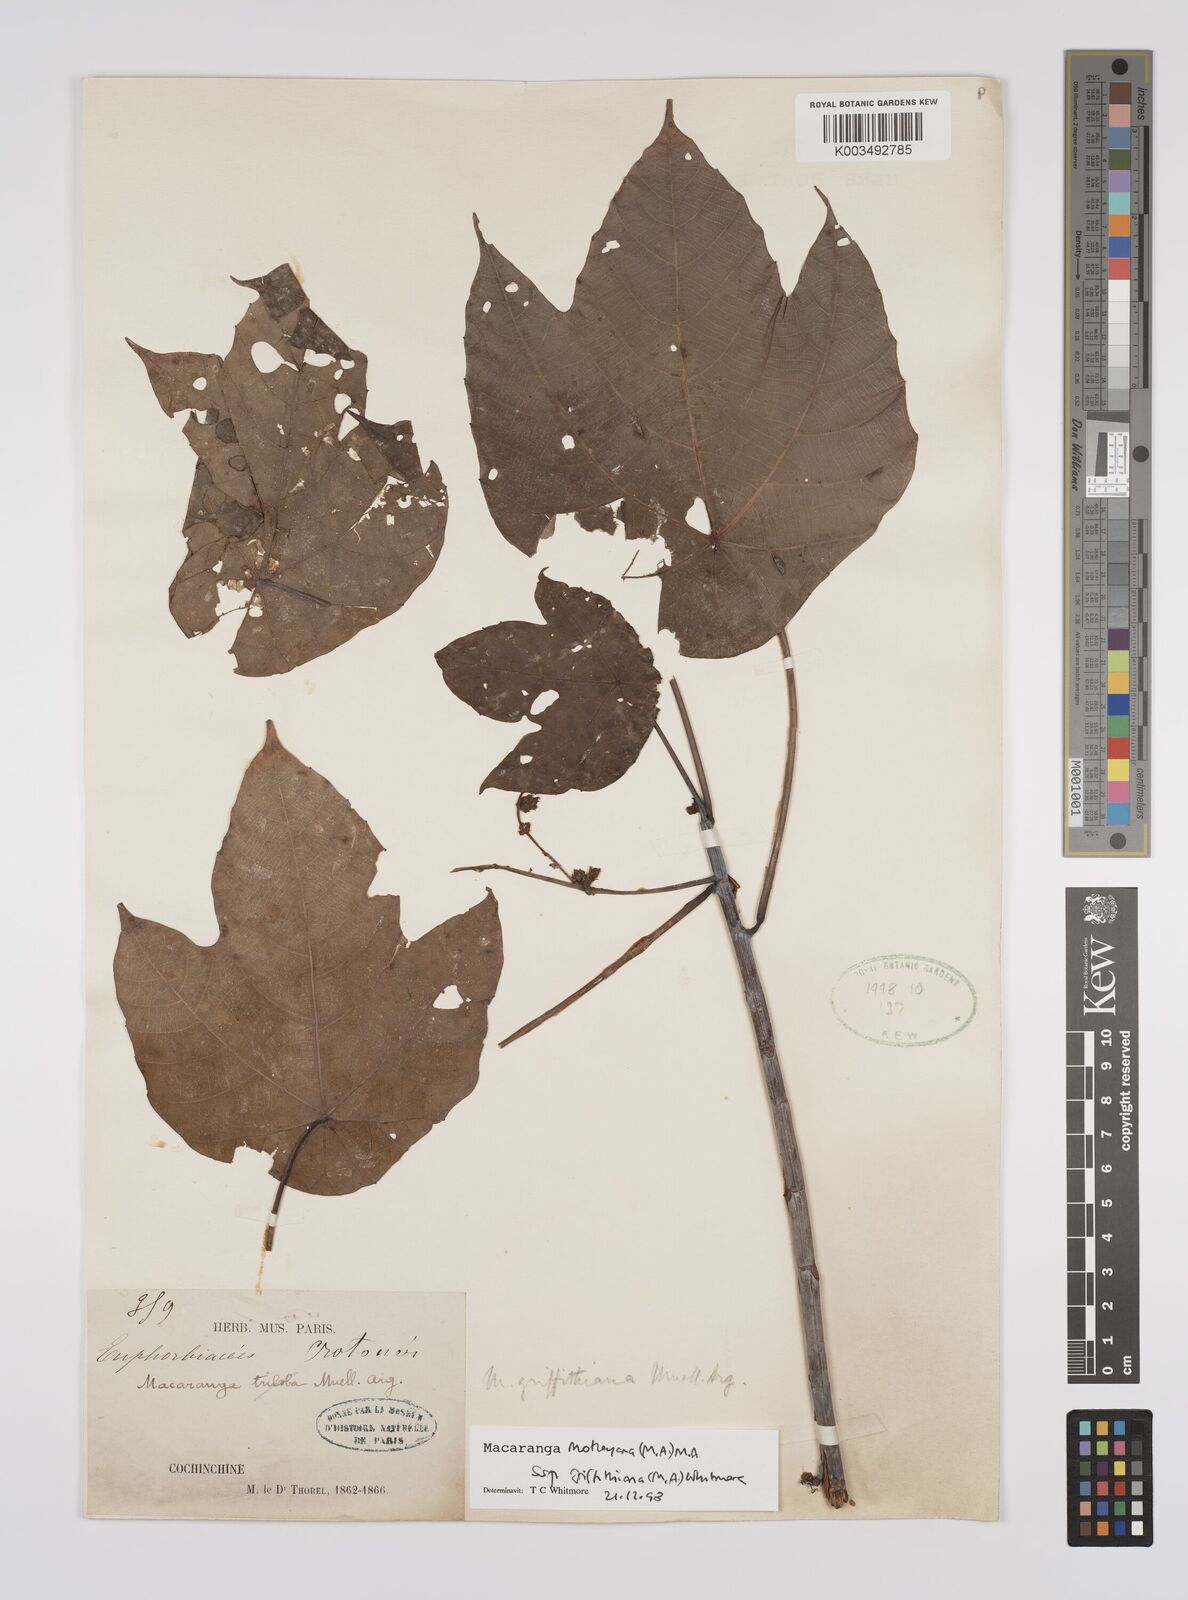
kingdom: Plantae
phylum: Tracheophyta
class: Magnoliopsida
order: Malpighiales
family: Euphorbiaceae
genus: Macaranga
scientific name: Macaranga griffithiana
